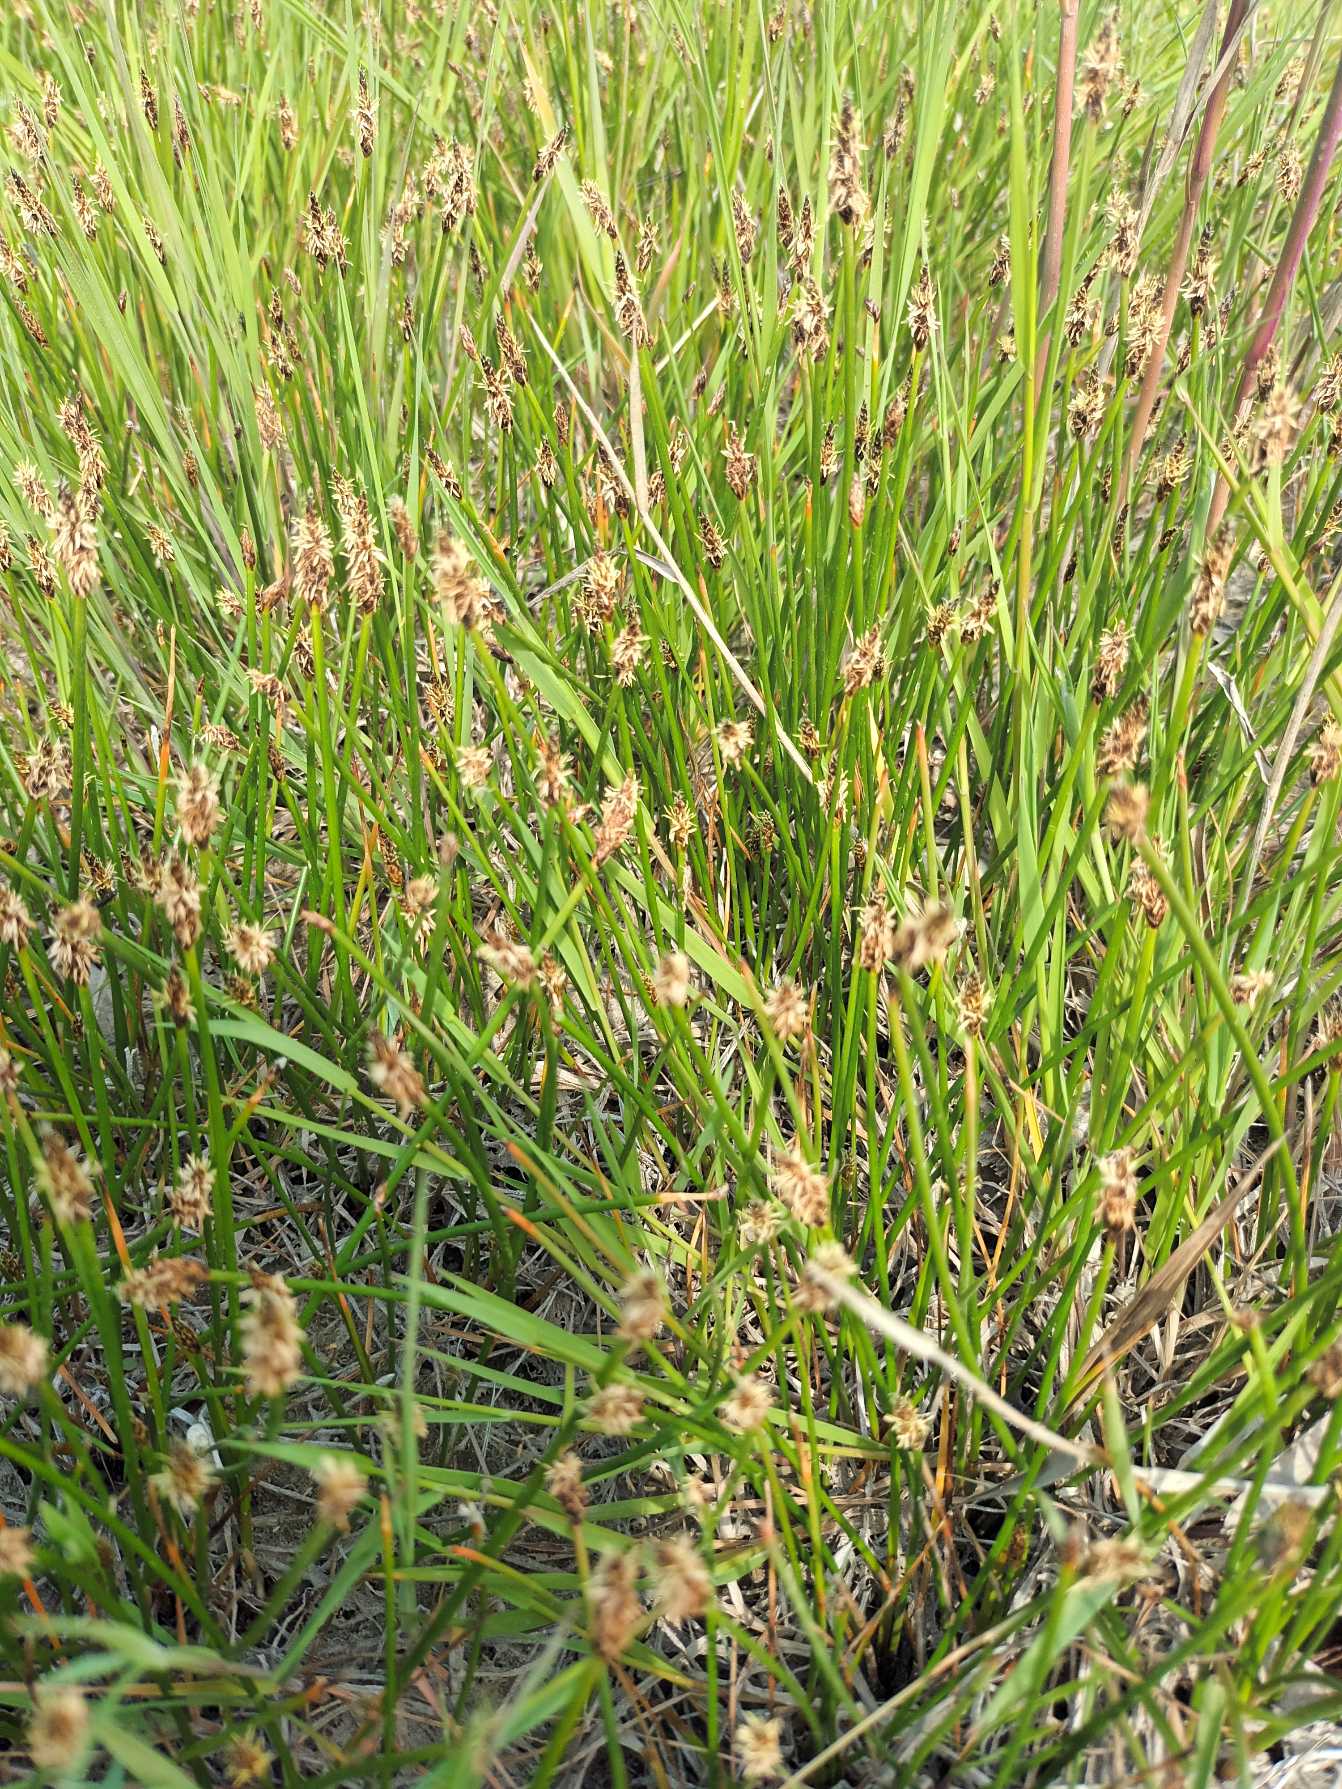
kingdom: Plantae
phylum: Tracheophyta
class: Liliopsida
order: Poales
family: Cyperaceae
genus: Eleocharis
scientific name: Eleocharis palustris
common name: Almindelig sumpstrå
